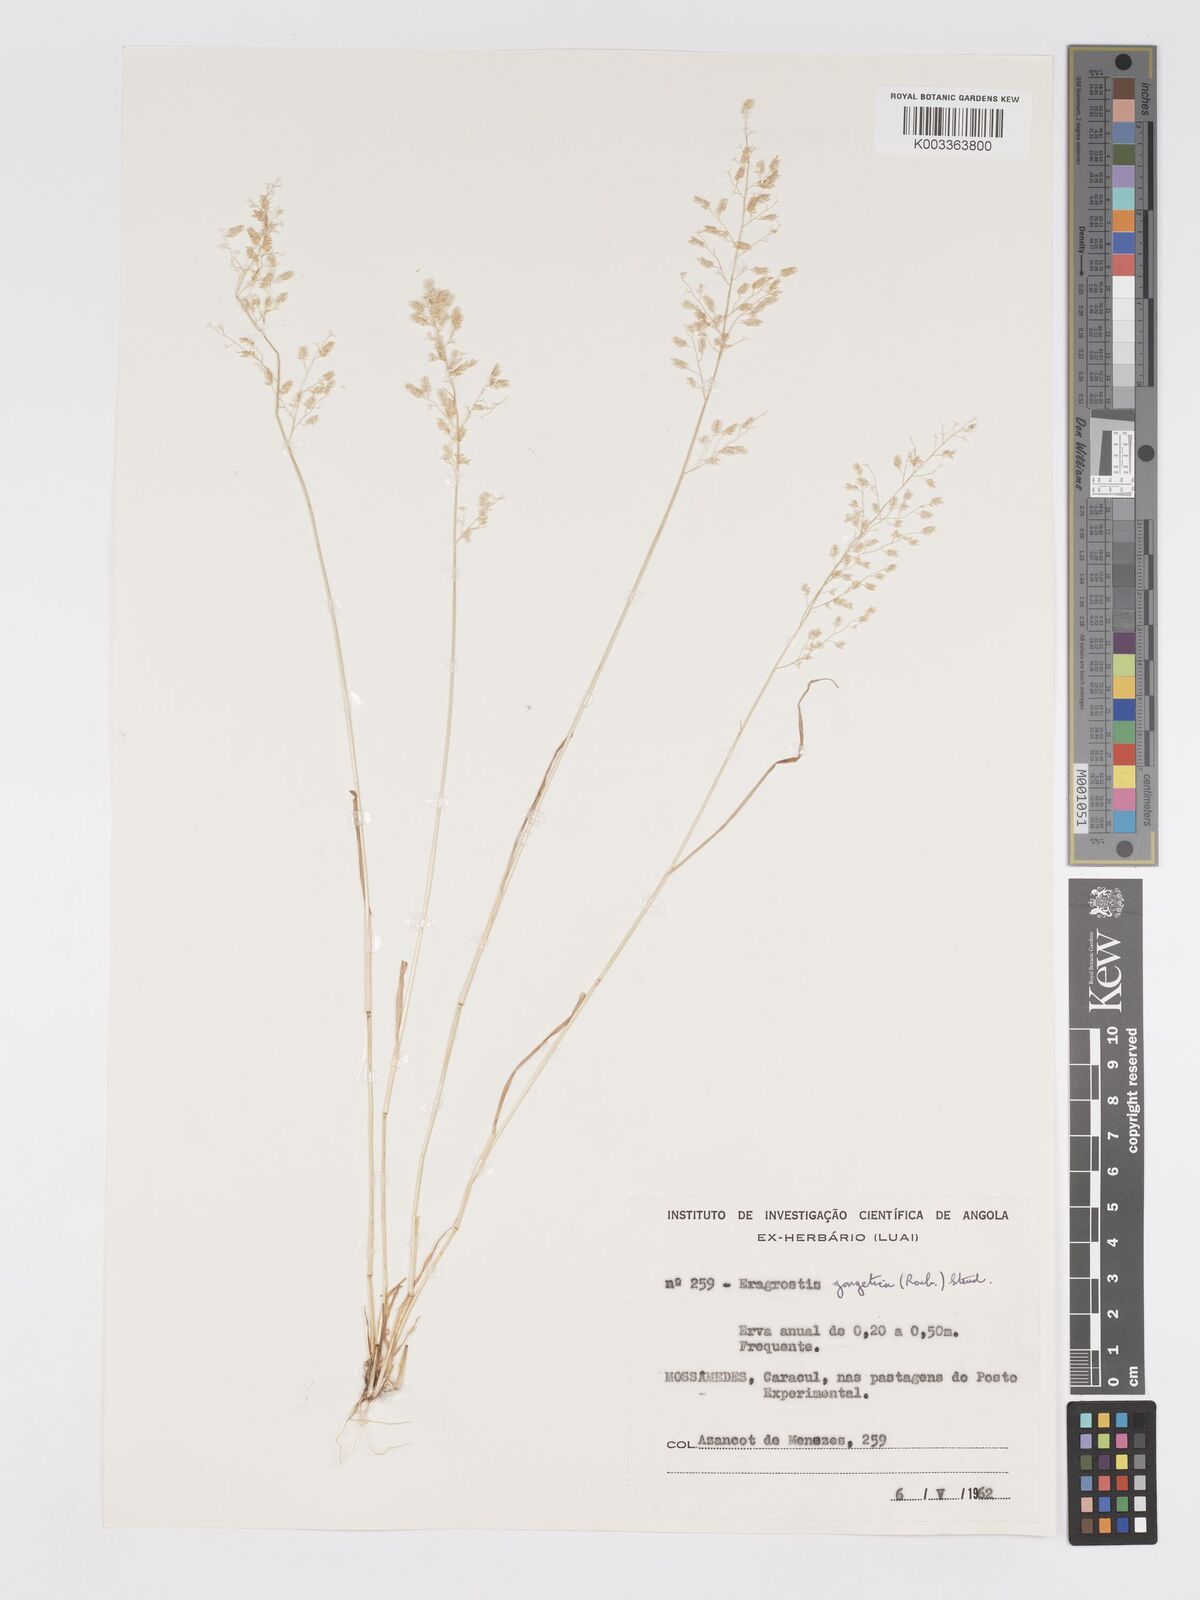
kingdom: Plantae
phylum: Tracheophyta
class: Liliopsida
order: Poales
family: Poaceae
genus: Eragrostis
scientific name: Eragrostis annulata
